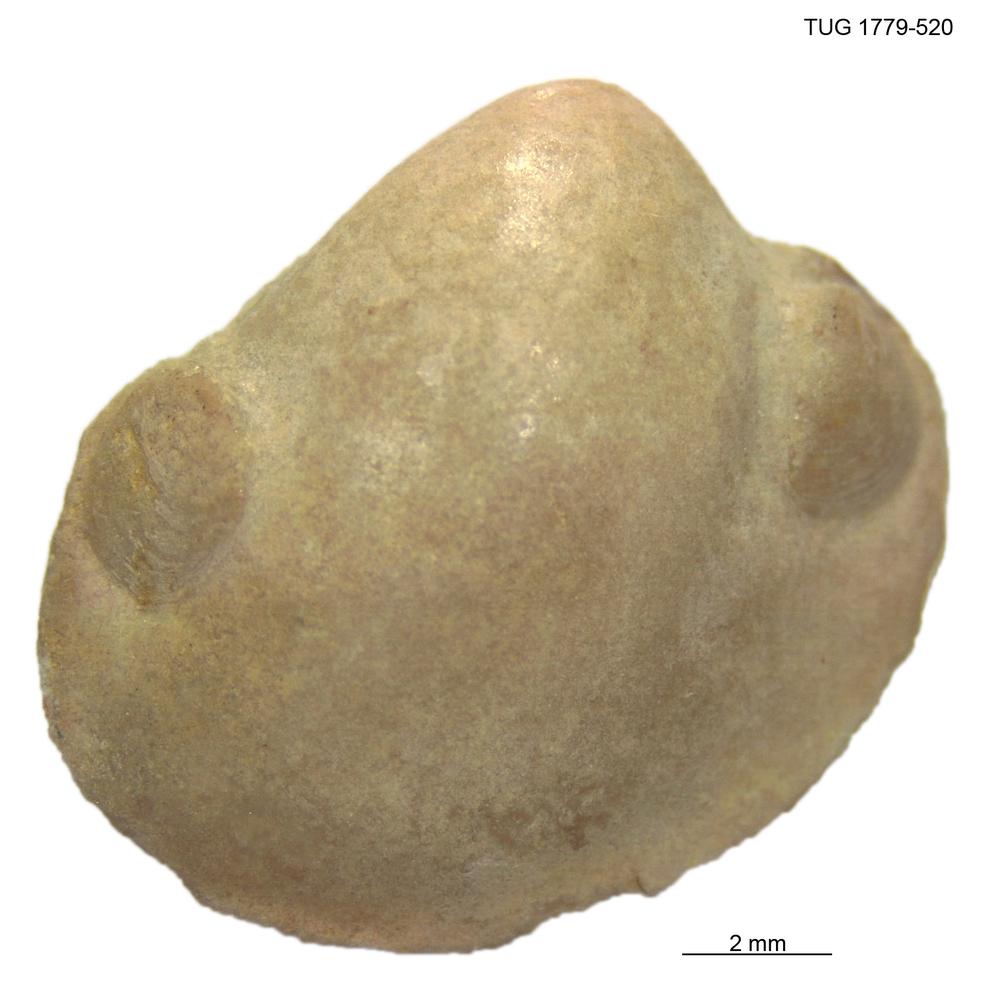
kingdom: Animalia
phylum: Mollusca
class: Bivalvia
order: Solemyida
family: Ctenodontidae
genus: Tancrediopsis
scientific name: Tancrediopsis
